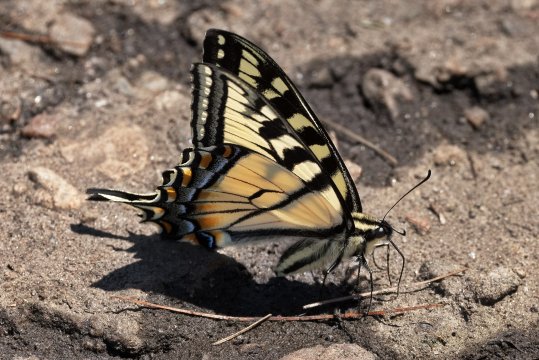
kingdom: Animalia
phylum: Arthropoda
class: Insecta
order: Lepidoptera
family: Papilionidae
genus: Pterourus
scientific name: Pterourus canadensis
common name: Canadian Tiger Swallowtail
